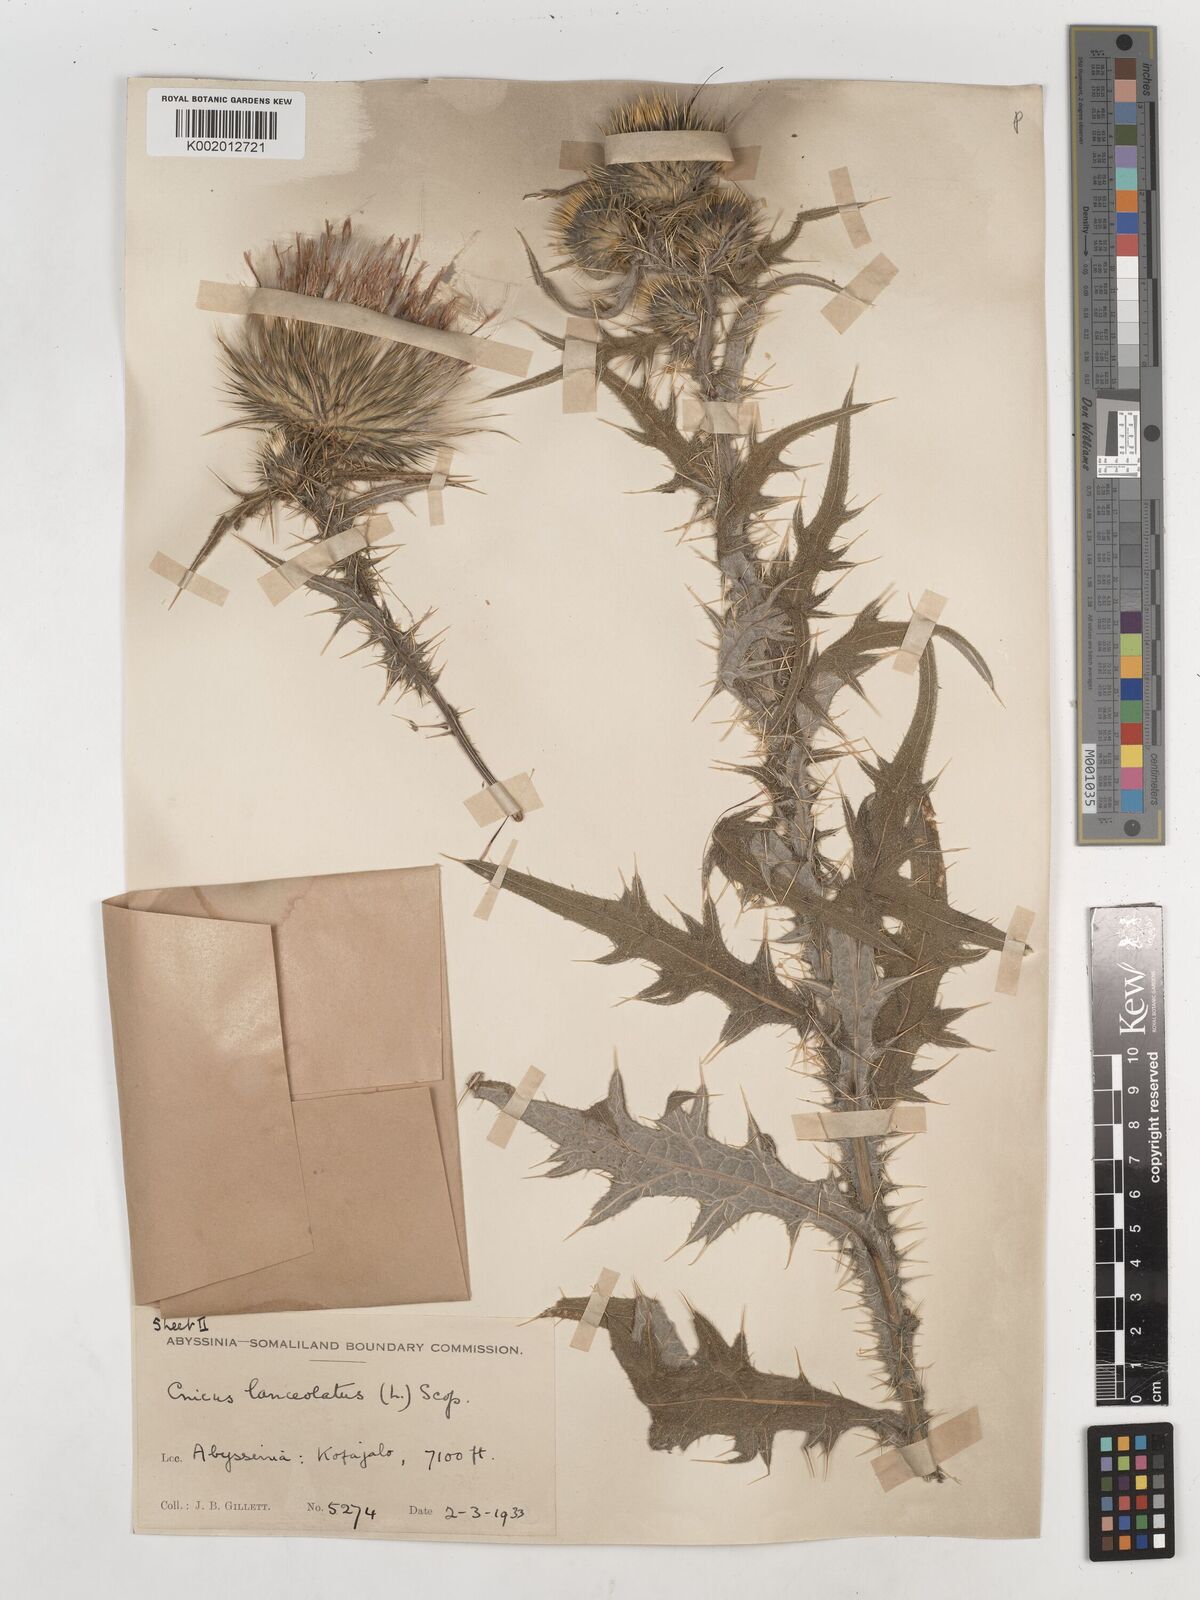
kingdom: Plantae
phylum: Tracheophyta
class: Magnoliopsida
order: Asterales
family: Asteraceae
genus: Cirsium
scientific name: Cirsium vulgare
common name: Bull thistle
